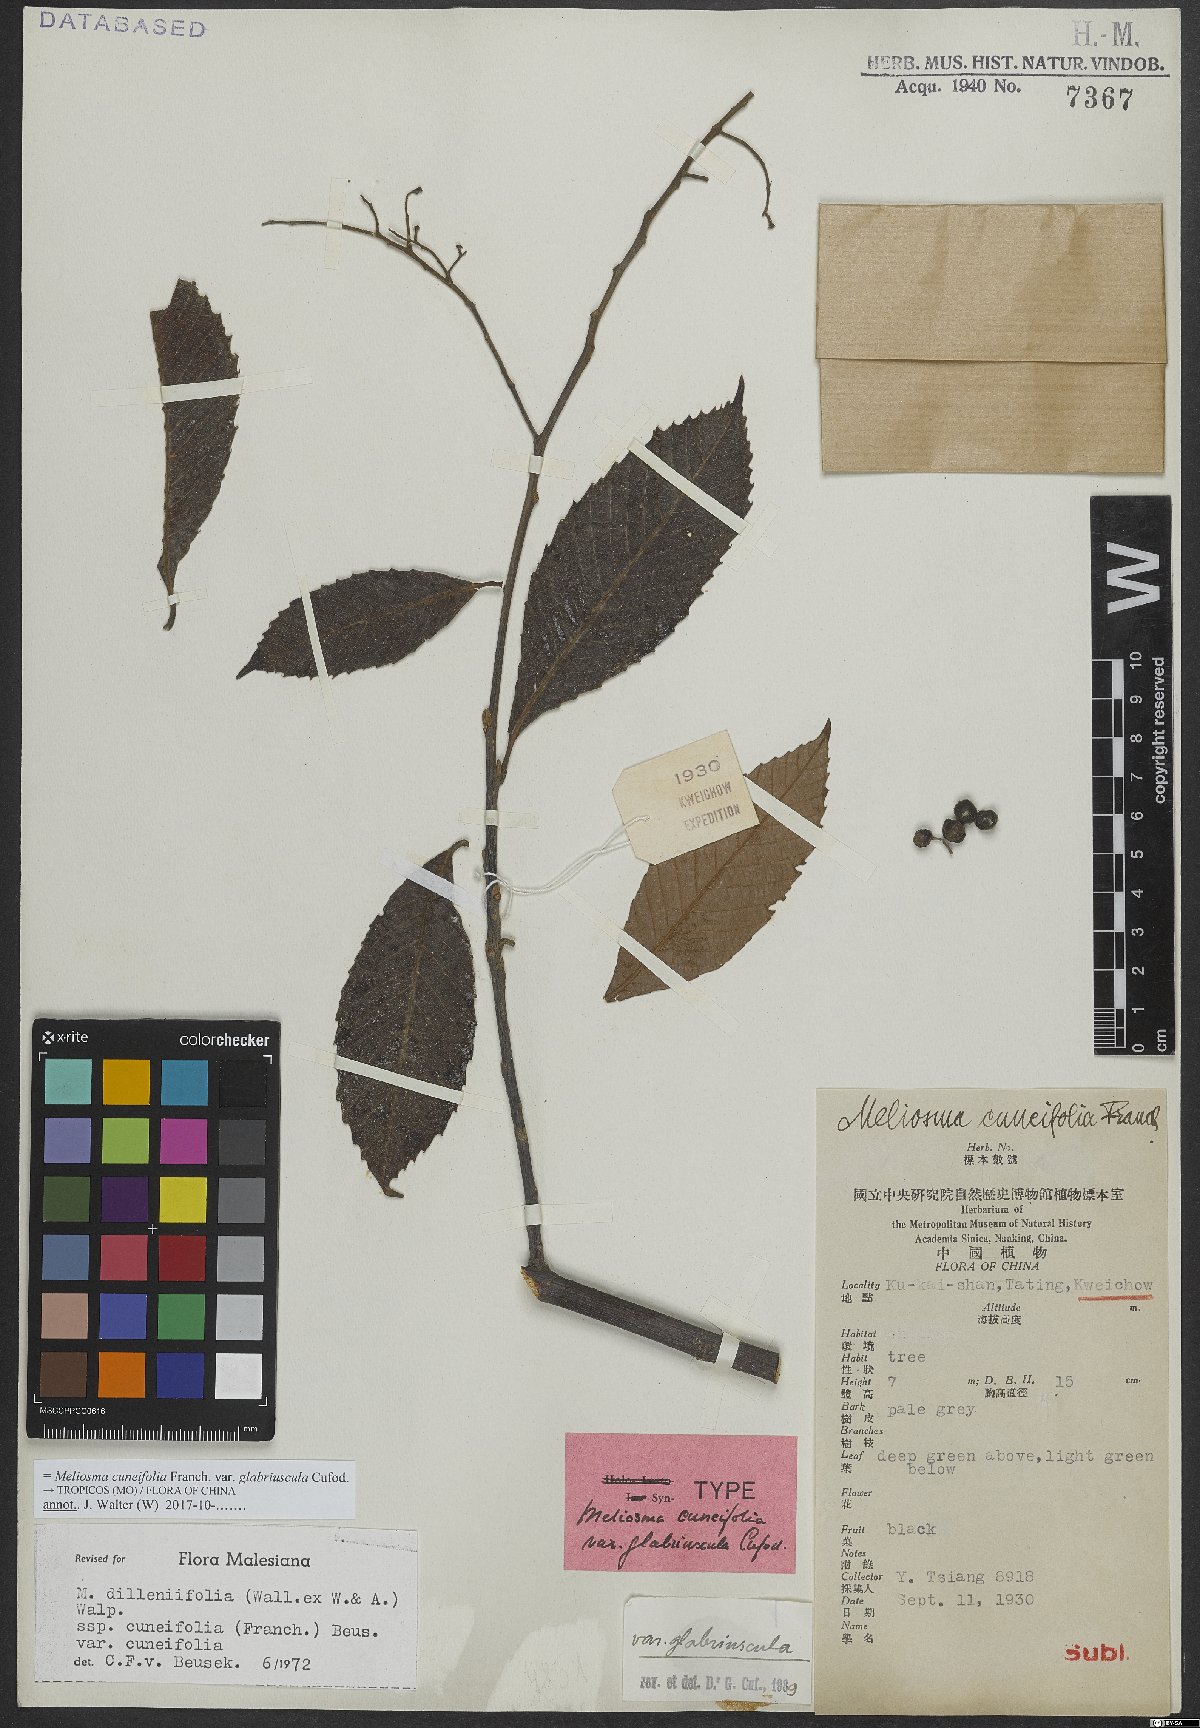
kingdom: Plantae
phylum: Tracheophyta
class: Magnoliopsida
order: Proteales
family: Sabiaceae
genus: Meliosma
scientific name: Meliosma cuneifolia
